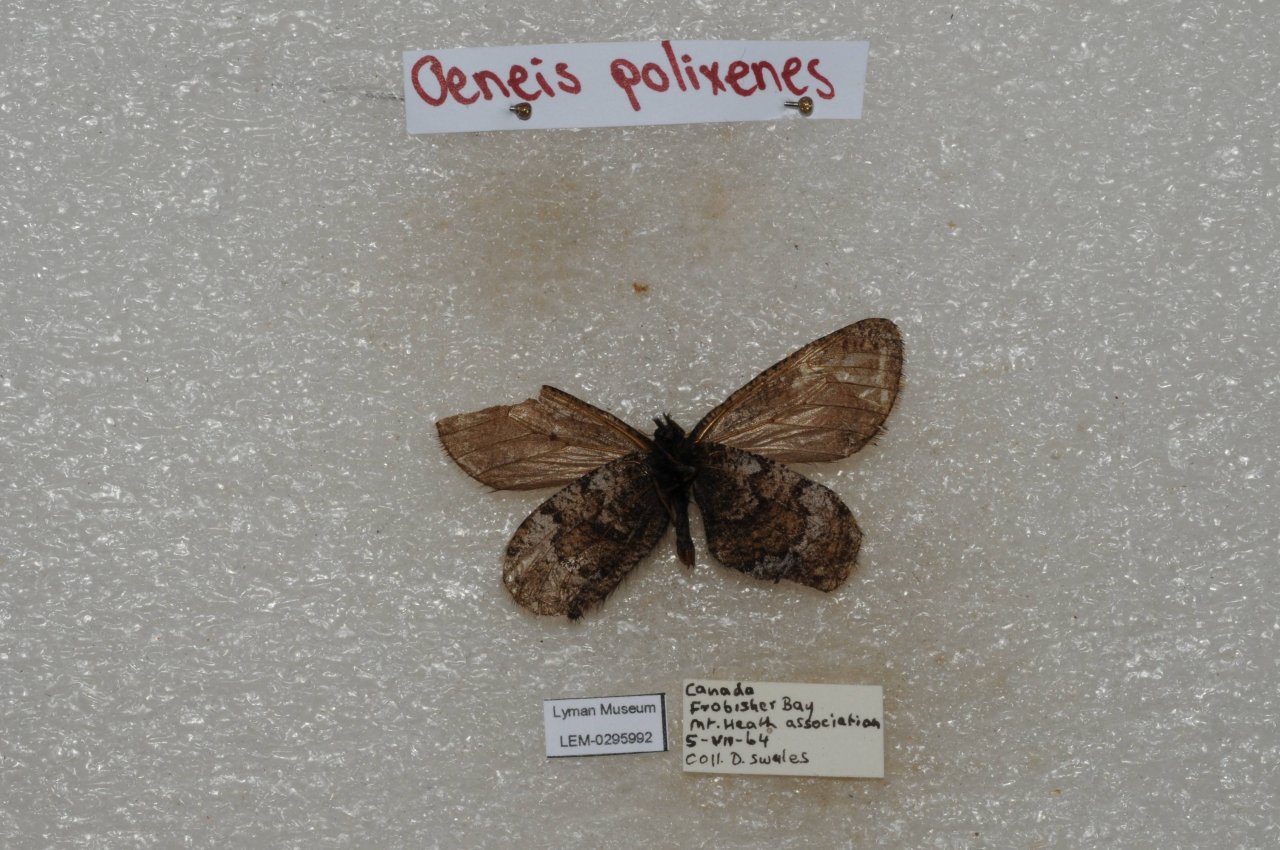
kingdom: Animalia
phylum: Arthropoda
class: Insecta
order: Lepidoptera
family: Nymphalidae
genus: Oeneis
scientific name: Oeneis bore
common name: Polixenes Arctic
